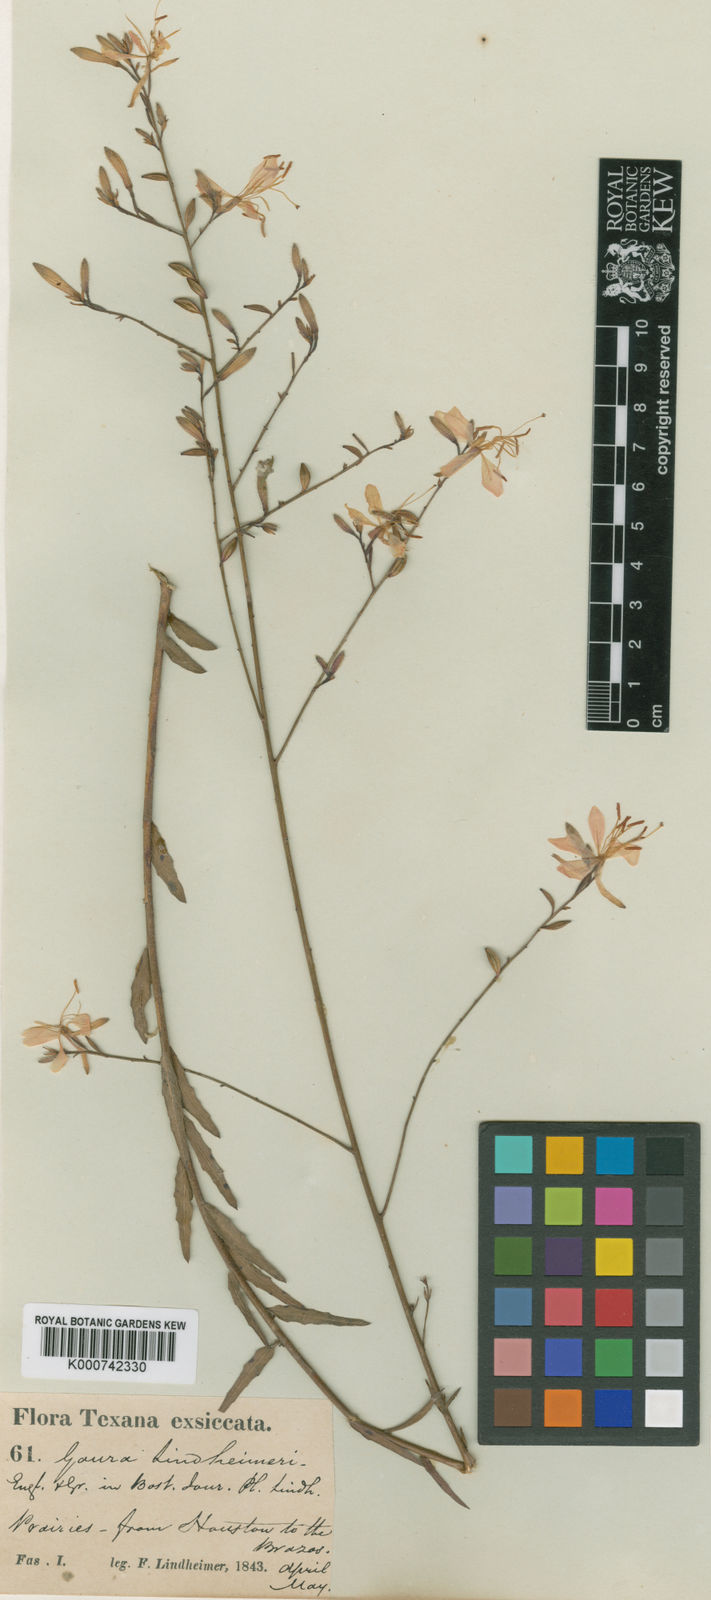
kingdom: Plantae
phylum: Tracheophyta
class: Magnoliopsida
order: Myrtales
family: Onagraceae
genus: Oenothera
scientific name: Oenothera lindheimeri
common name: Lindheimer's beeblossom
